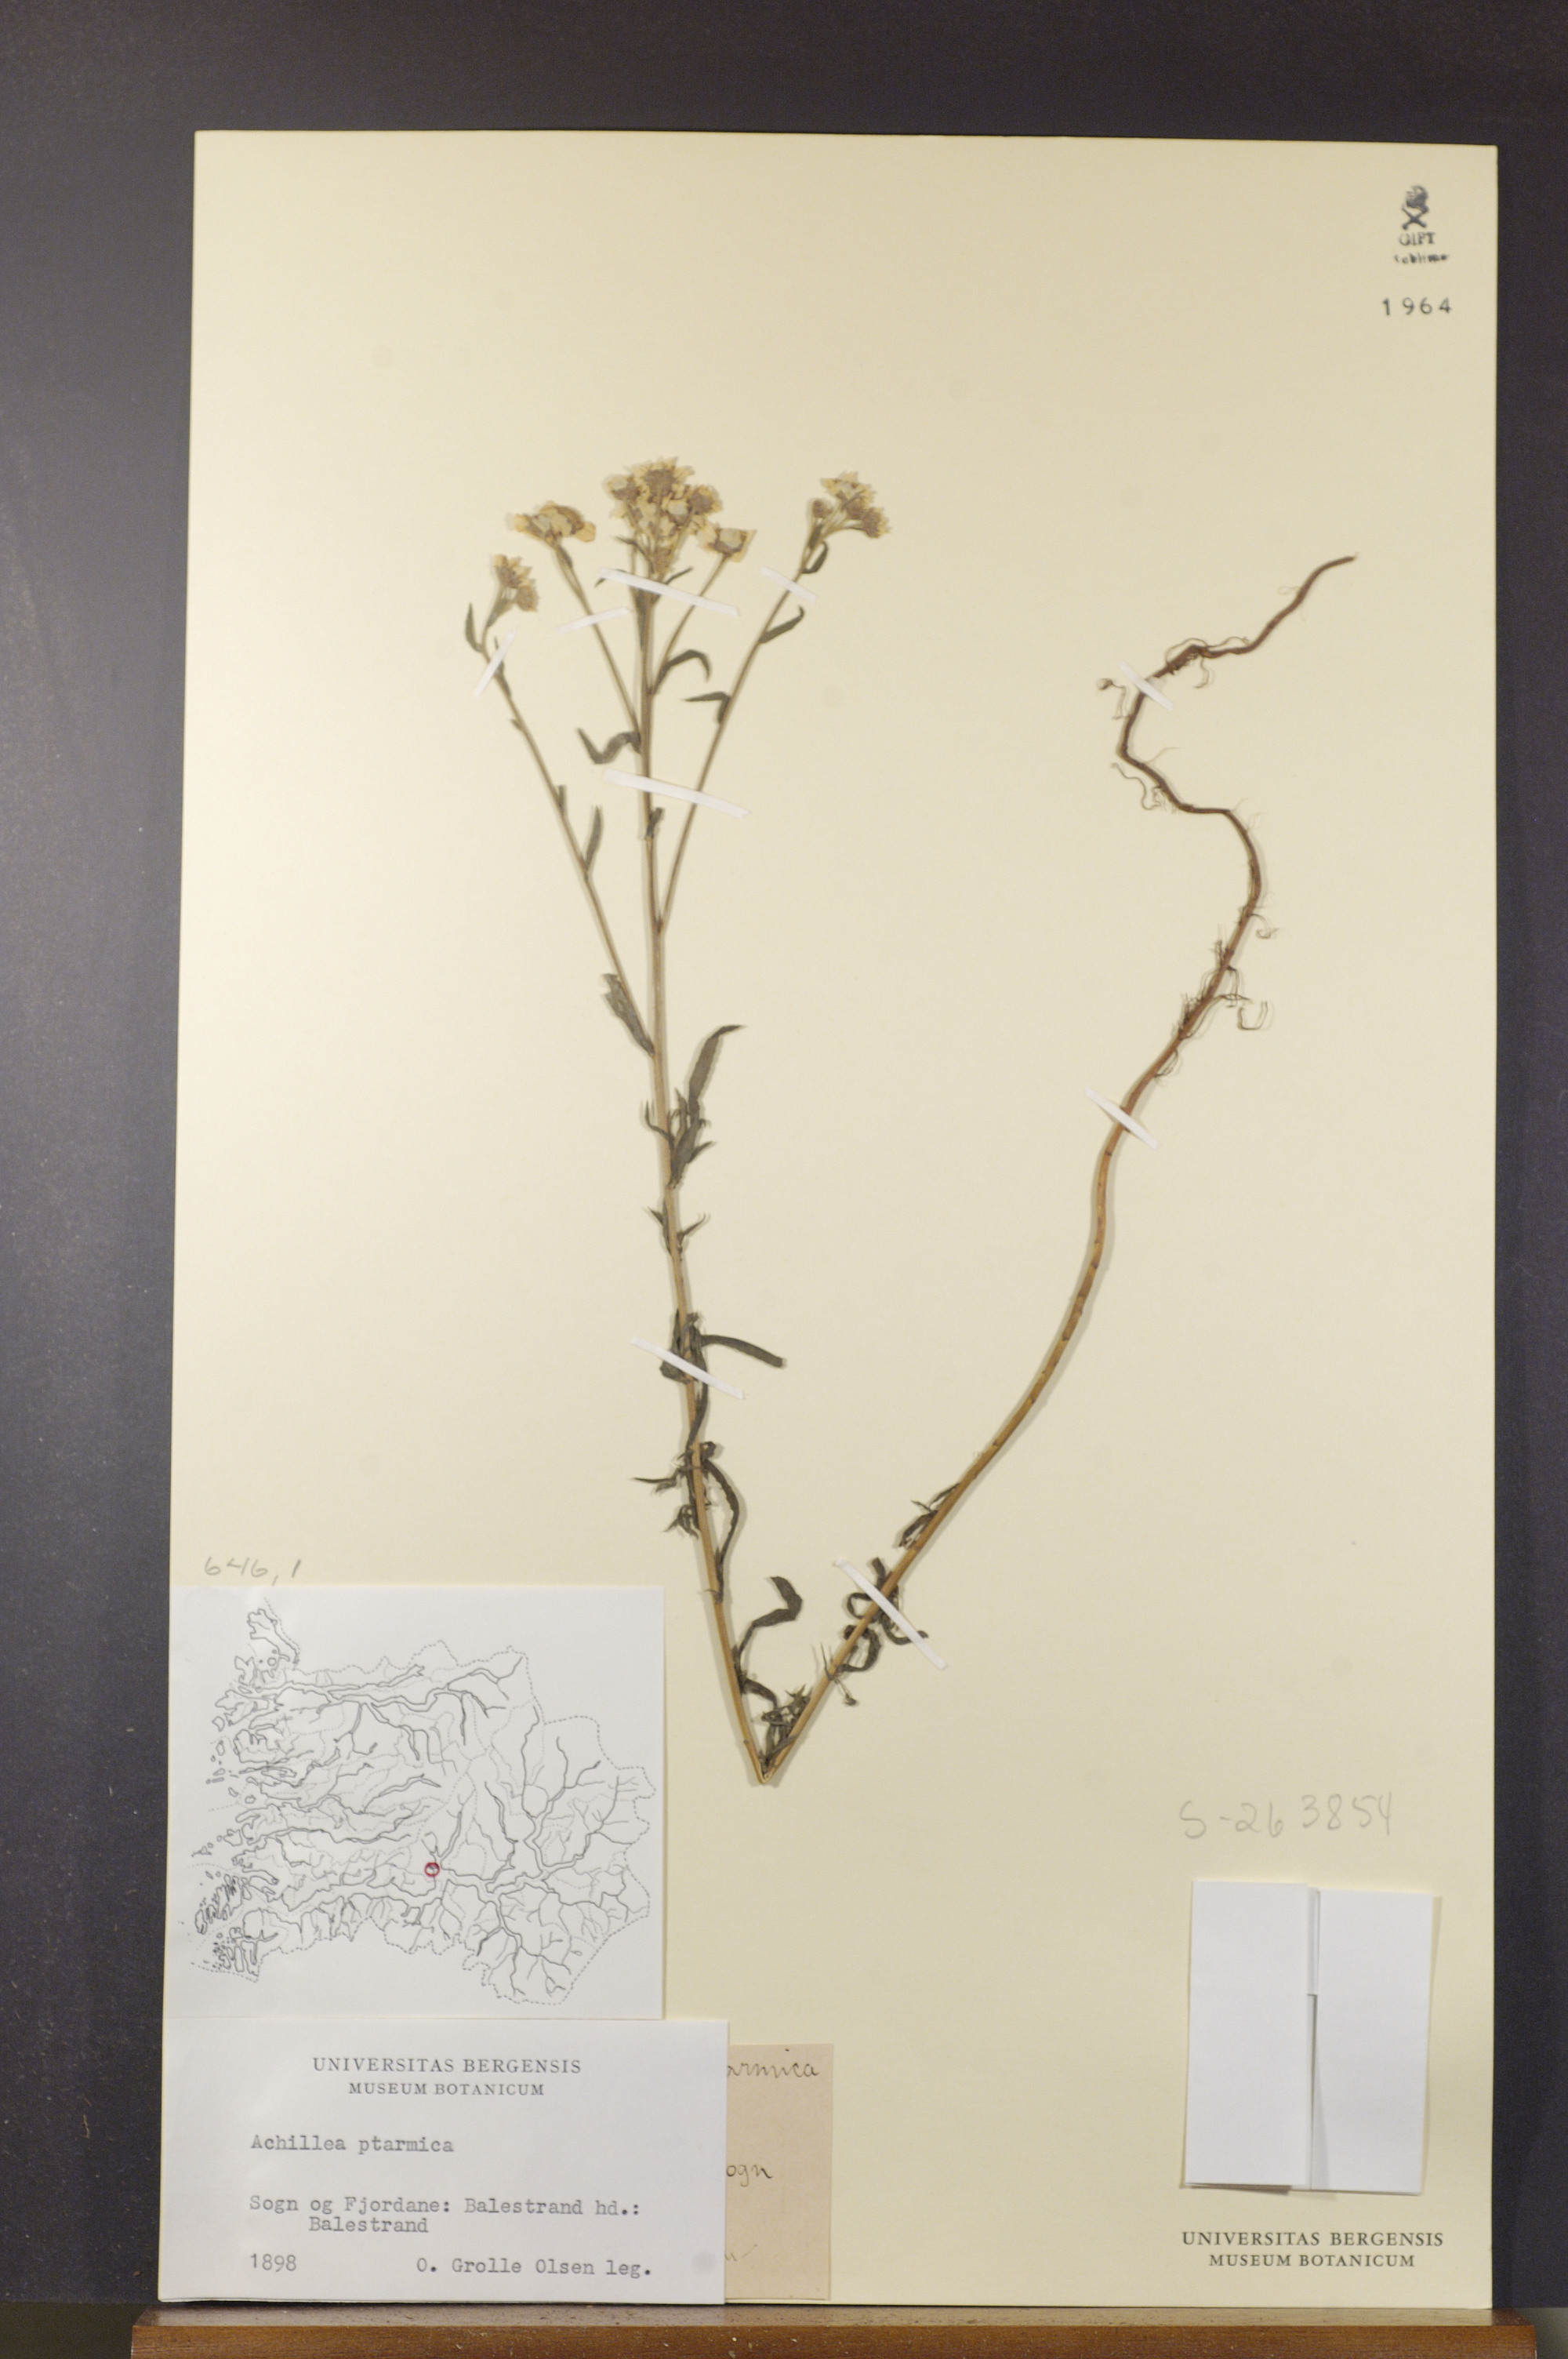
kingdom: Plantae
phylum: Tracheophyta
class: Magnoliopsida
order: Asterales
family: Asteraceae
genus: Achillea
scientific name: Achillea ptarmica
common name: Sneezeweed
